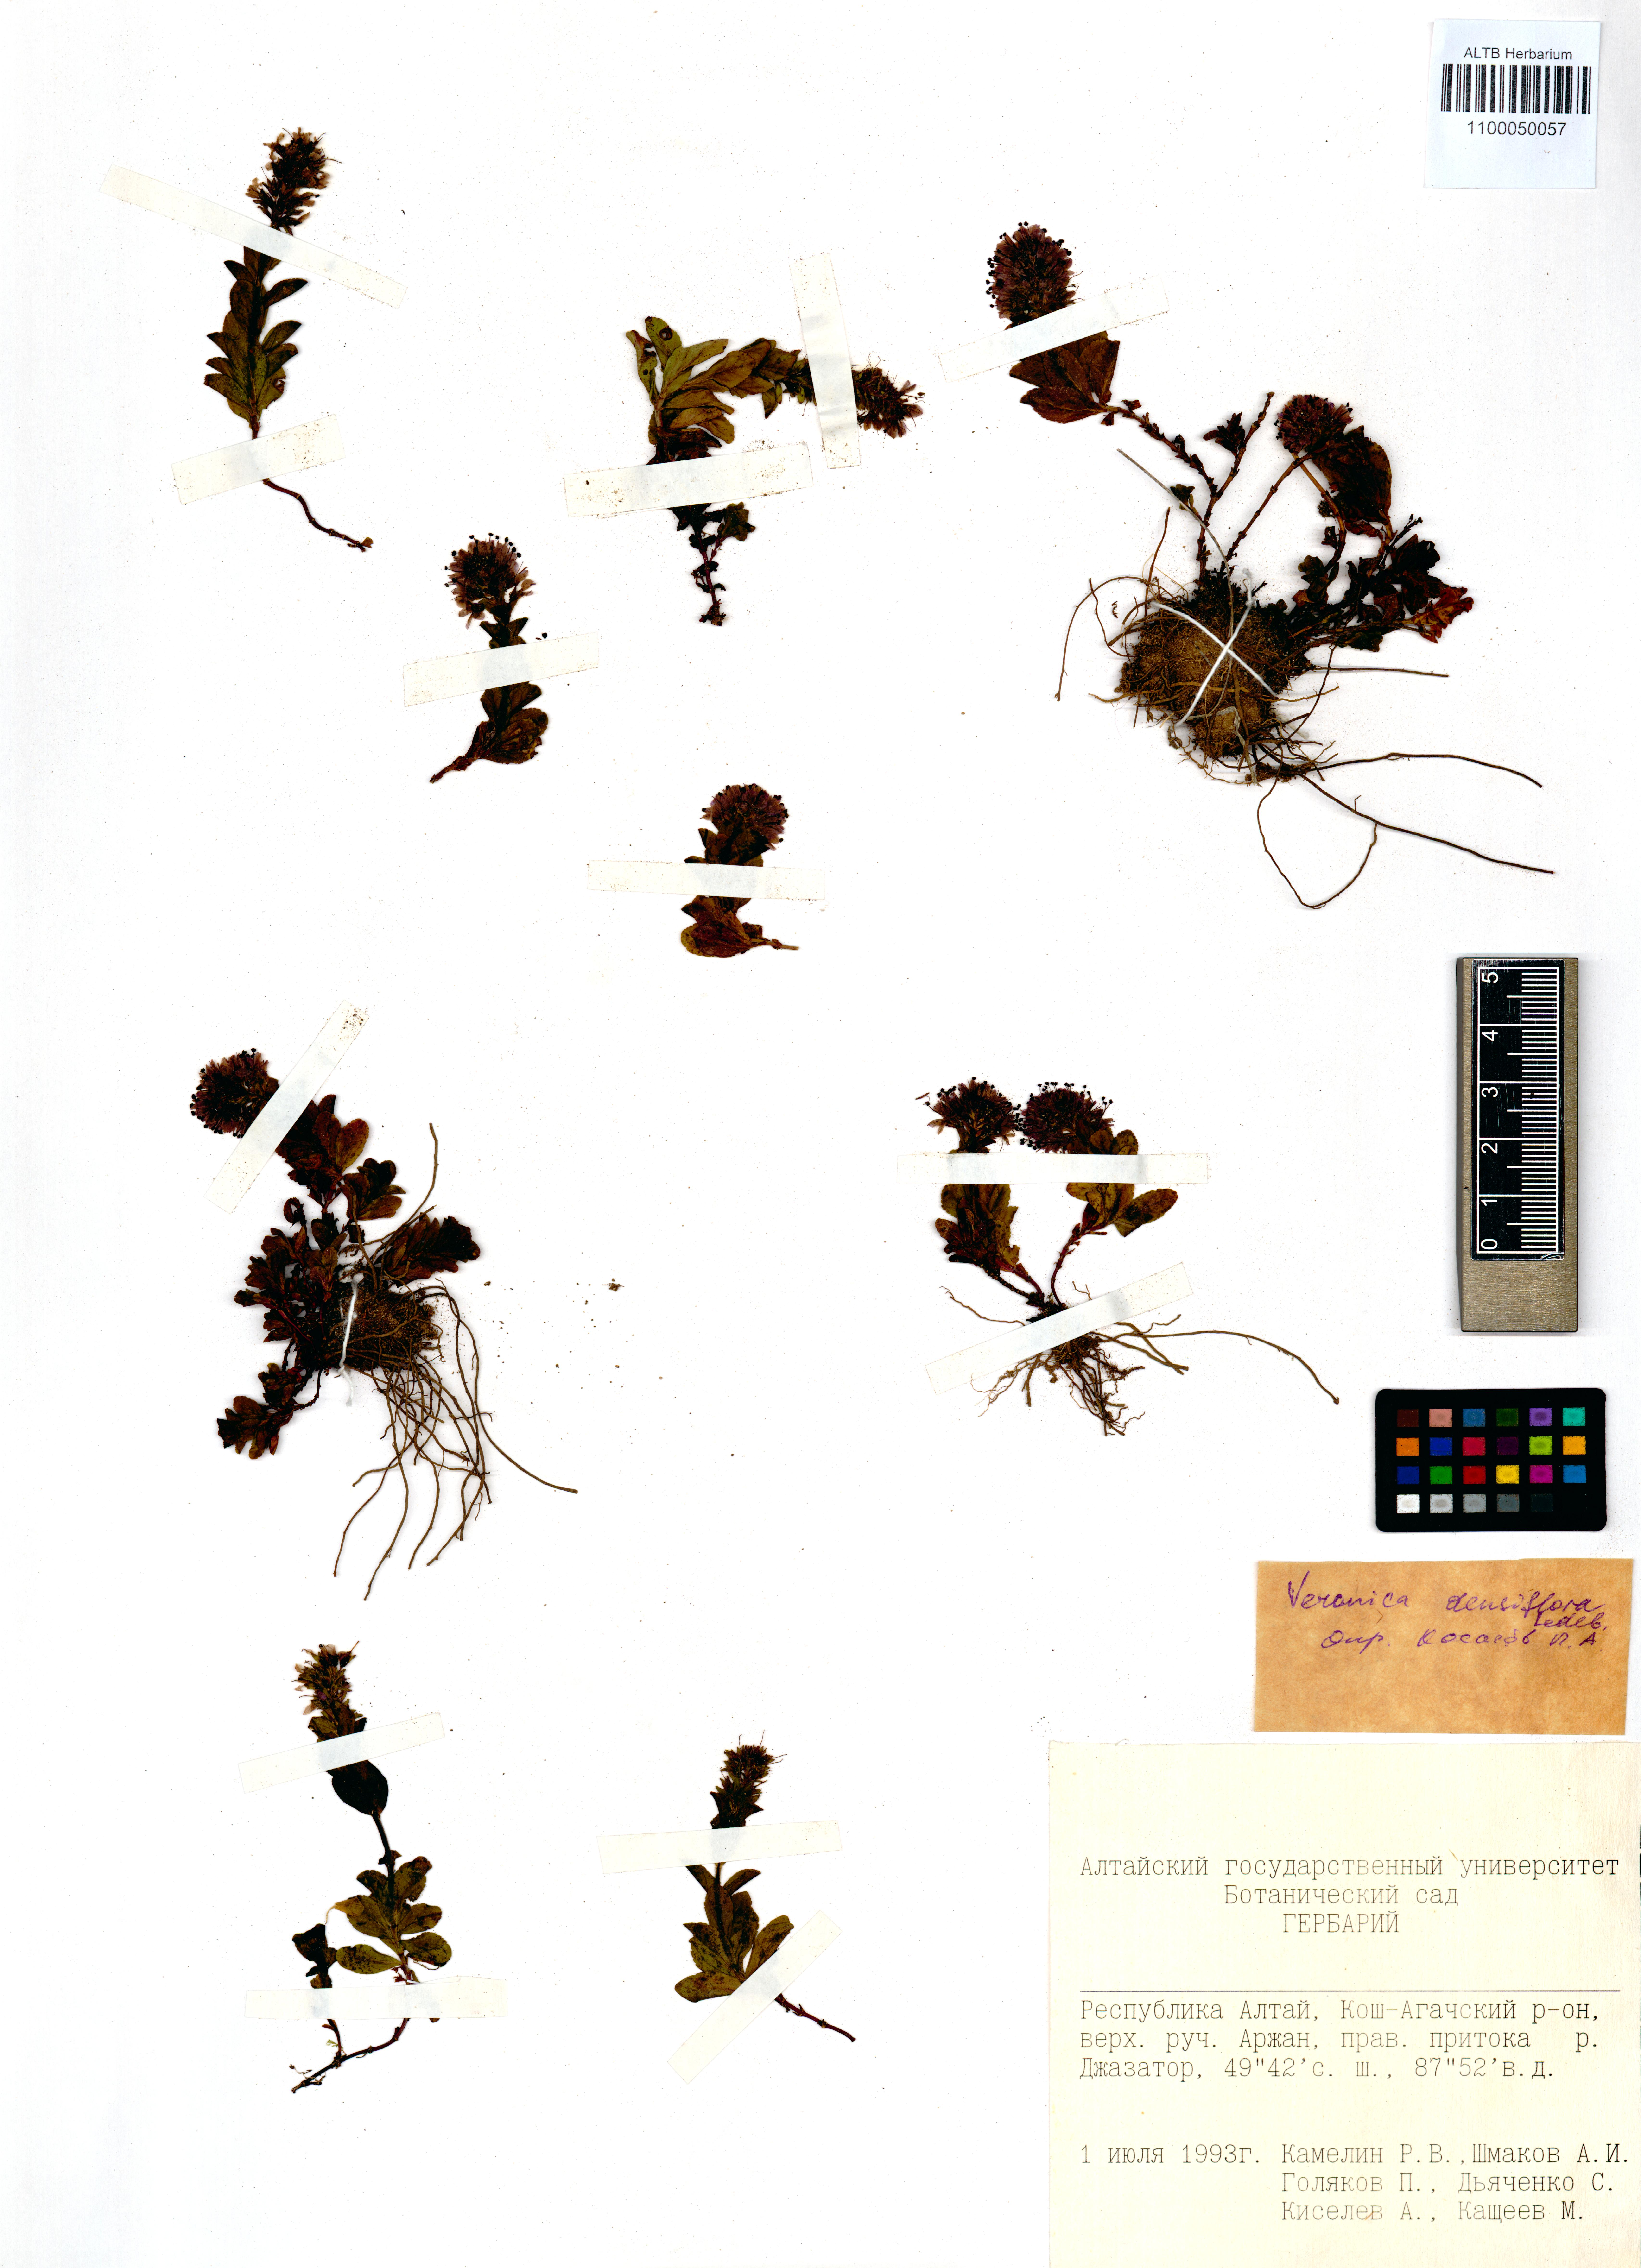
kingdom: Plantae
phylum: Tracheophyta
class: Magnoliopsida
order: Lamiales
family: Plantaginaceae
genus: Veronica
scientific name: Veronica densiflora
